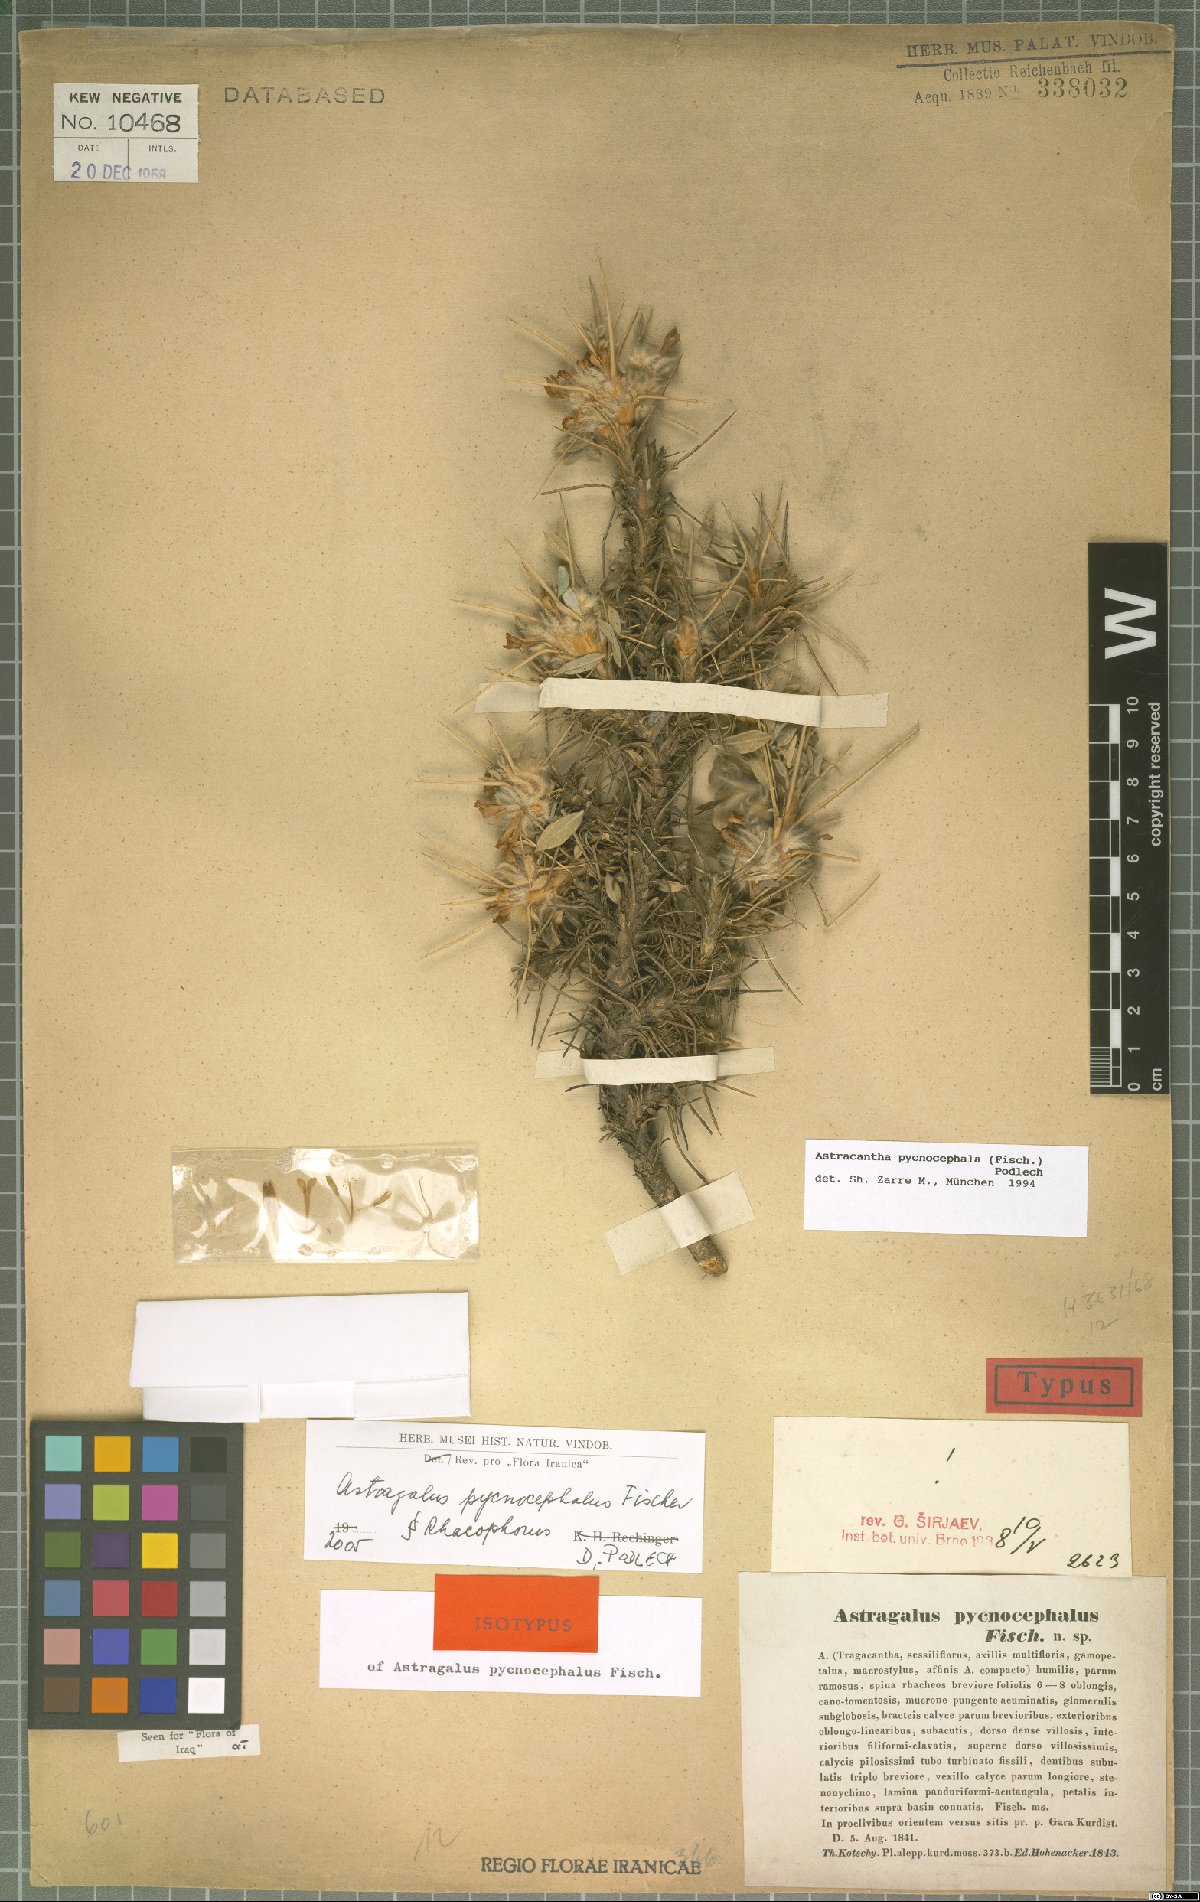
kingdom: Plantae
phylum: Tracheophyta
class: Magnoliopsida
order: Fabales
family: Fabaceae
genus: Astragalus
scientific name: Astragalus pycnocephalus
